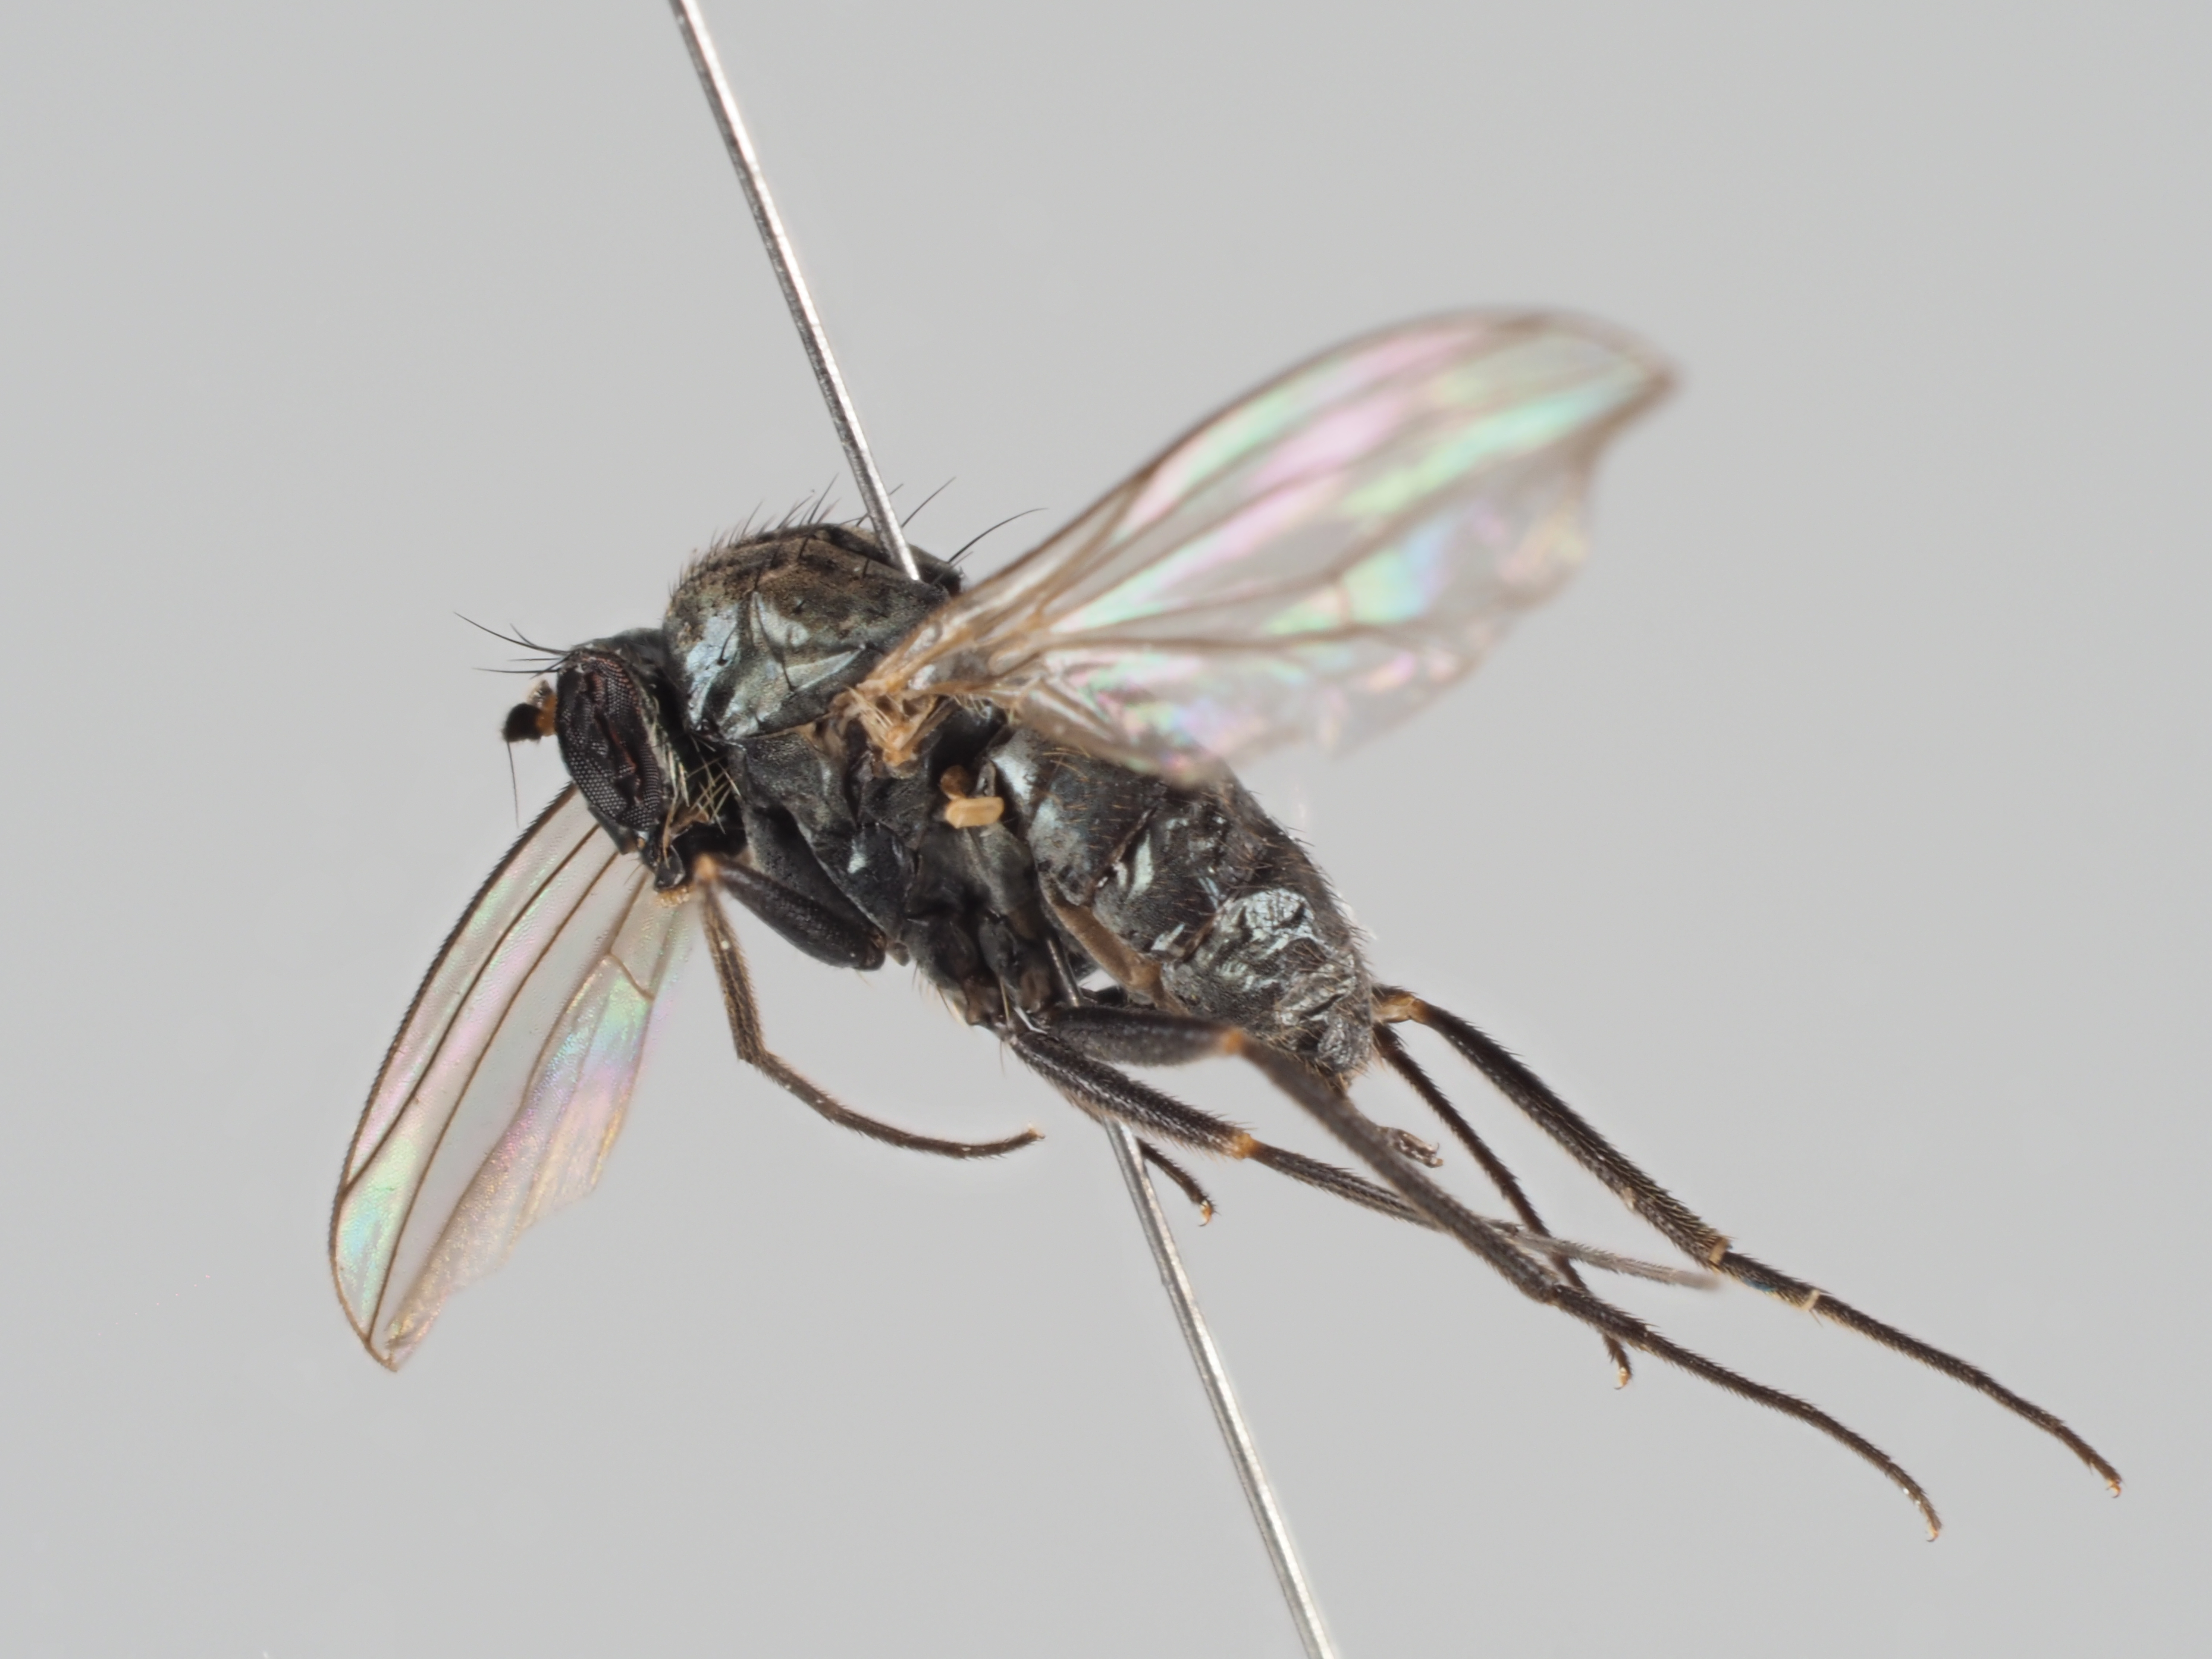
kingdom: Animalia
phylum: Arthropoda
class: Insecta
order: Diptera
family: Dolichopodidae
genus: Medetera
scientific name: Medetera pinicola
